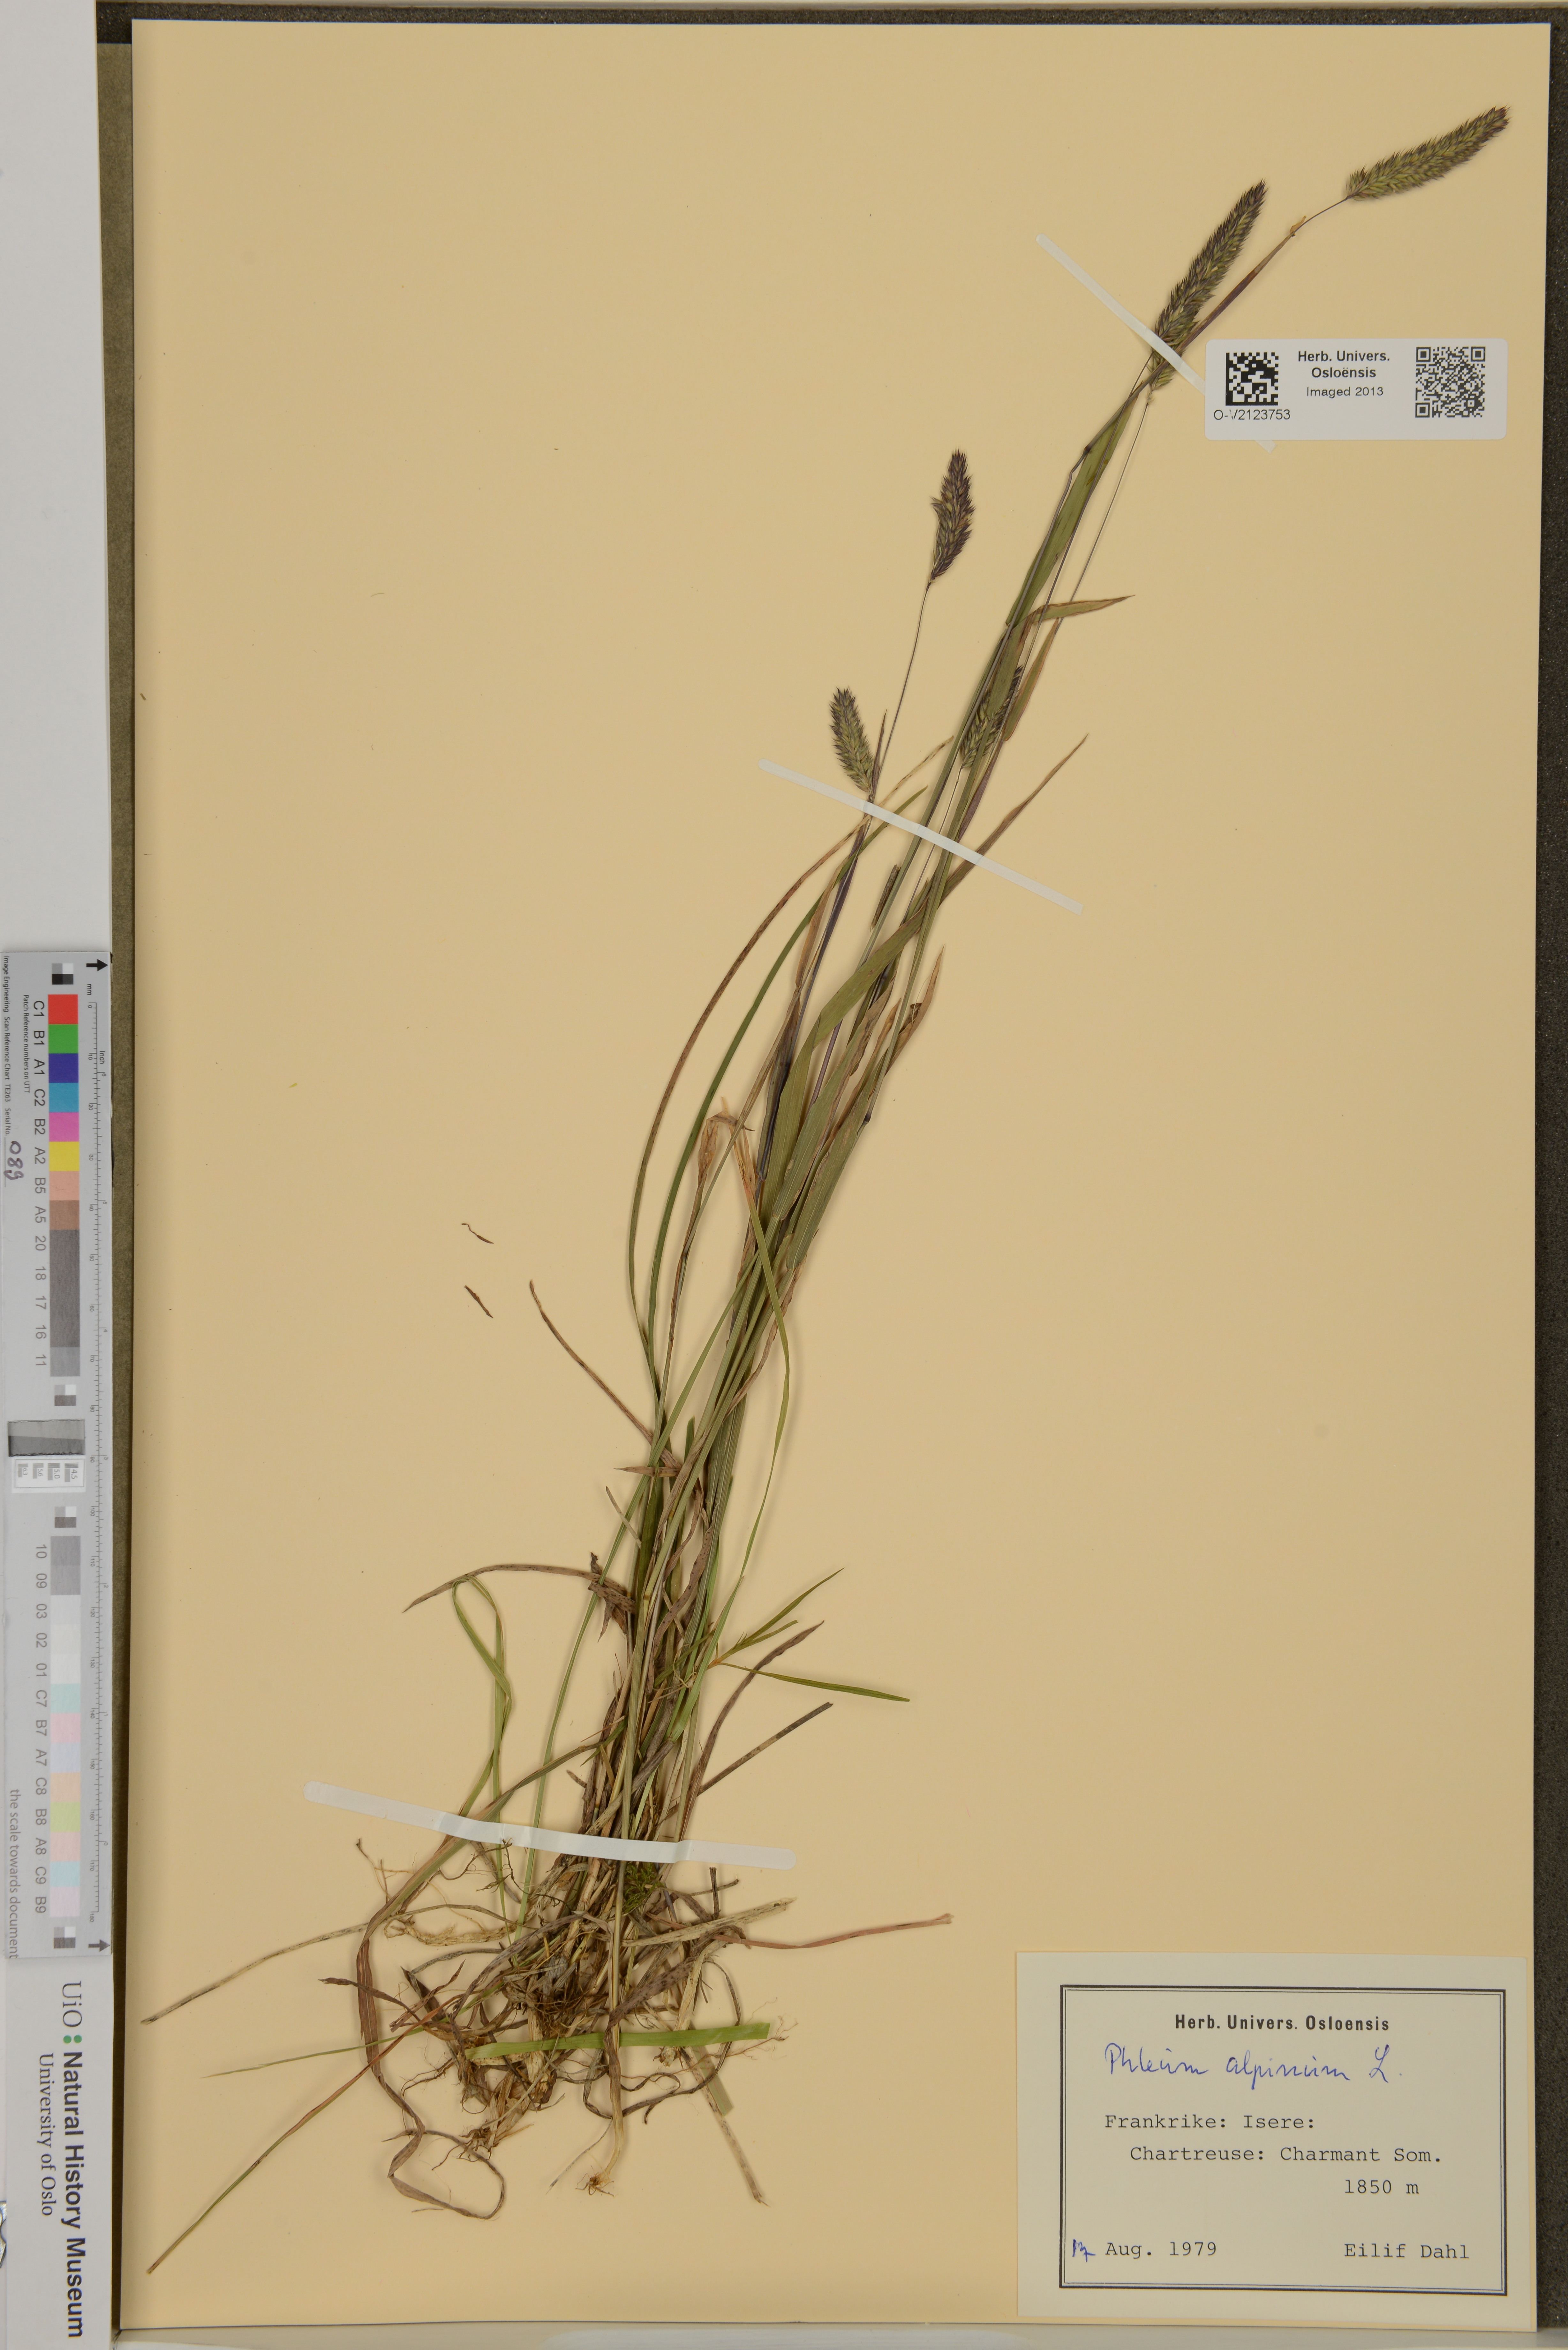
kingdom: Plantae
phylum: Tracheophyta
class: Liliopsida
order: Poales
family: Poaceae
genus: Phleum
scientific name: Phleum alpinum
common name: Alpine cat's-tail
